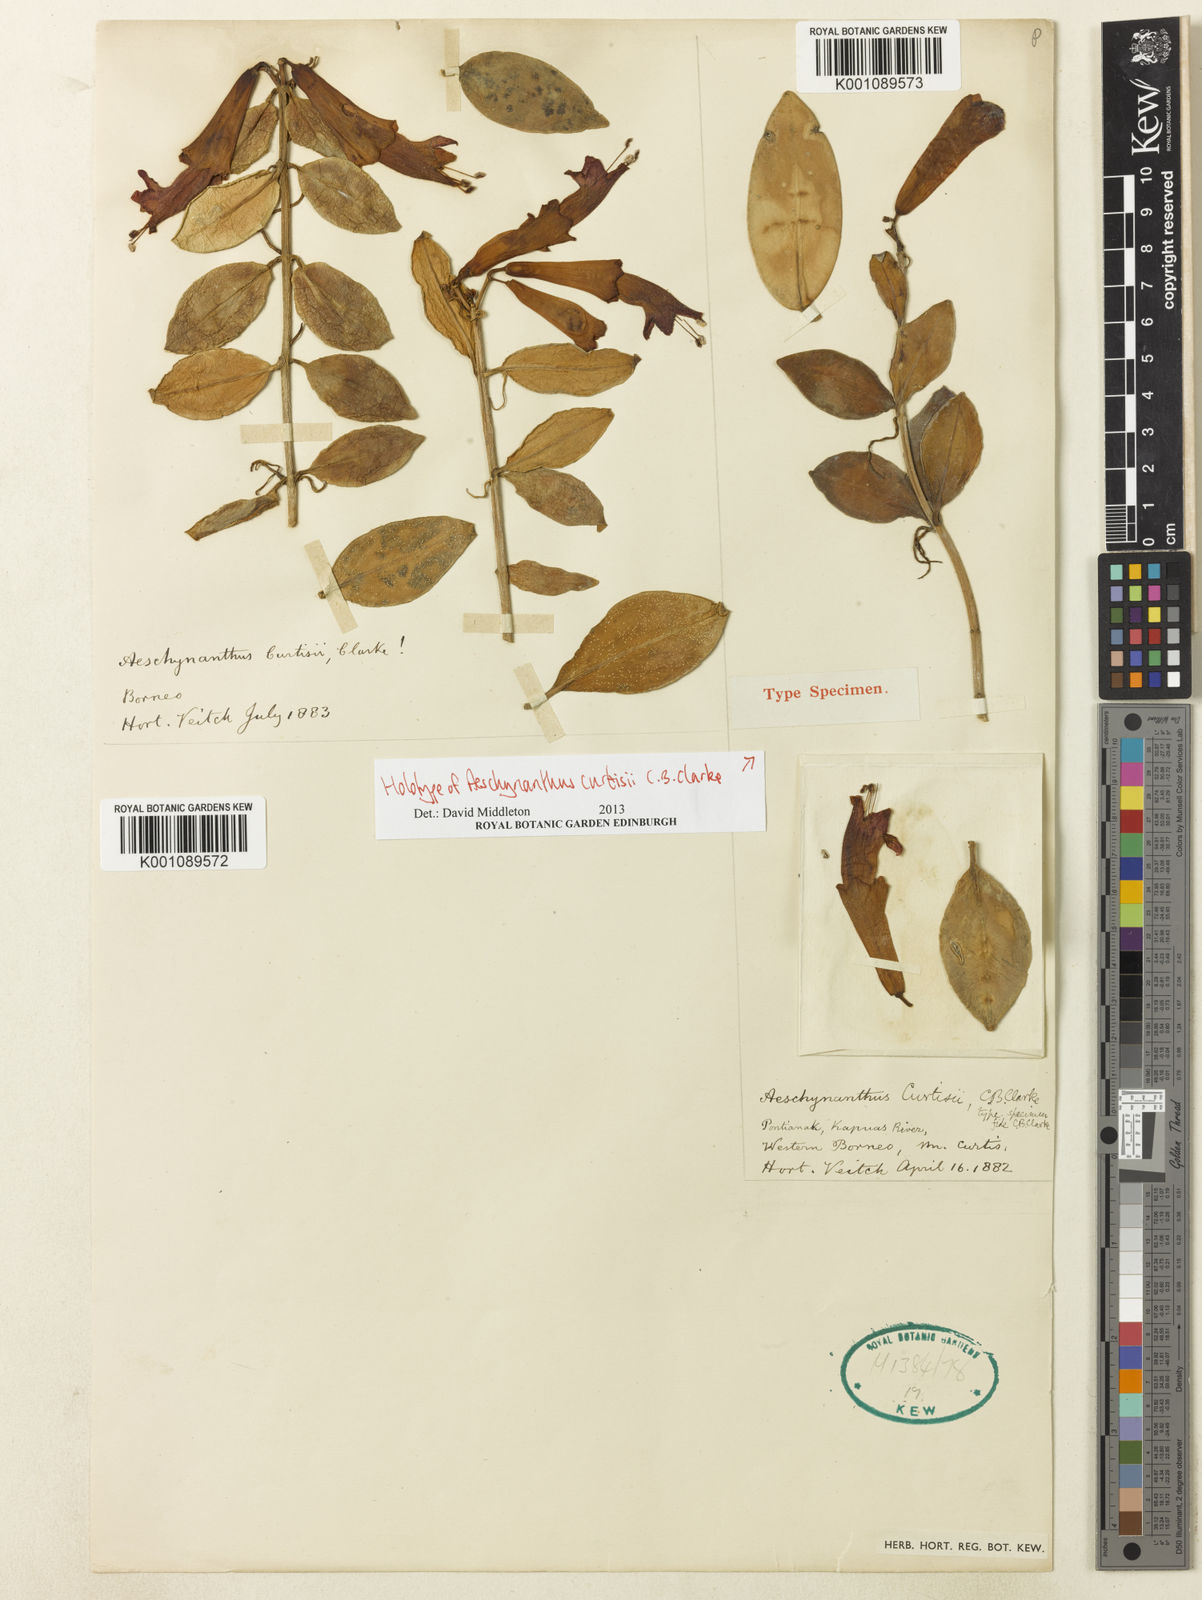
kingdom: Plantae
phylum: Tracheophyta
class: Magnoliopsida
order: Lamiales
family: Gesneriaceae
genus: Aeschynanthus
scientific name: Aeschynanthus curtisii
